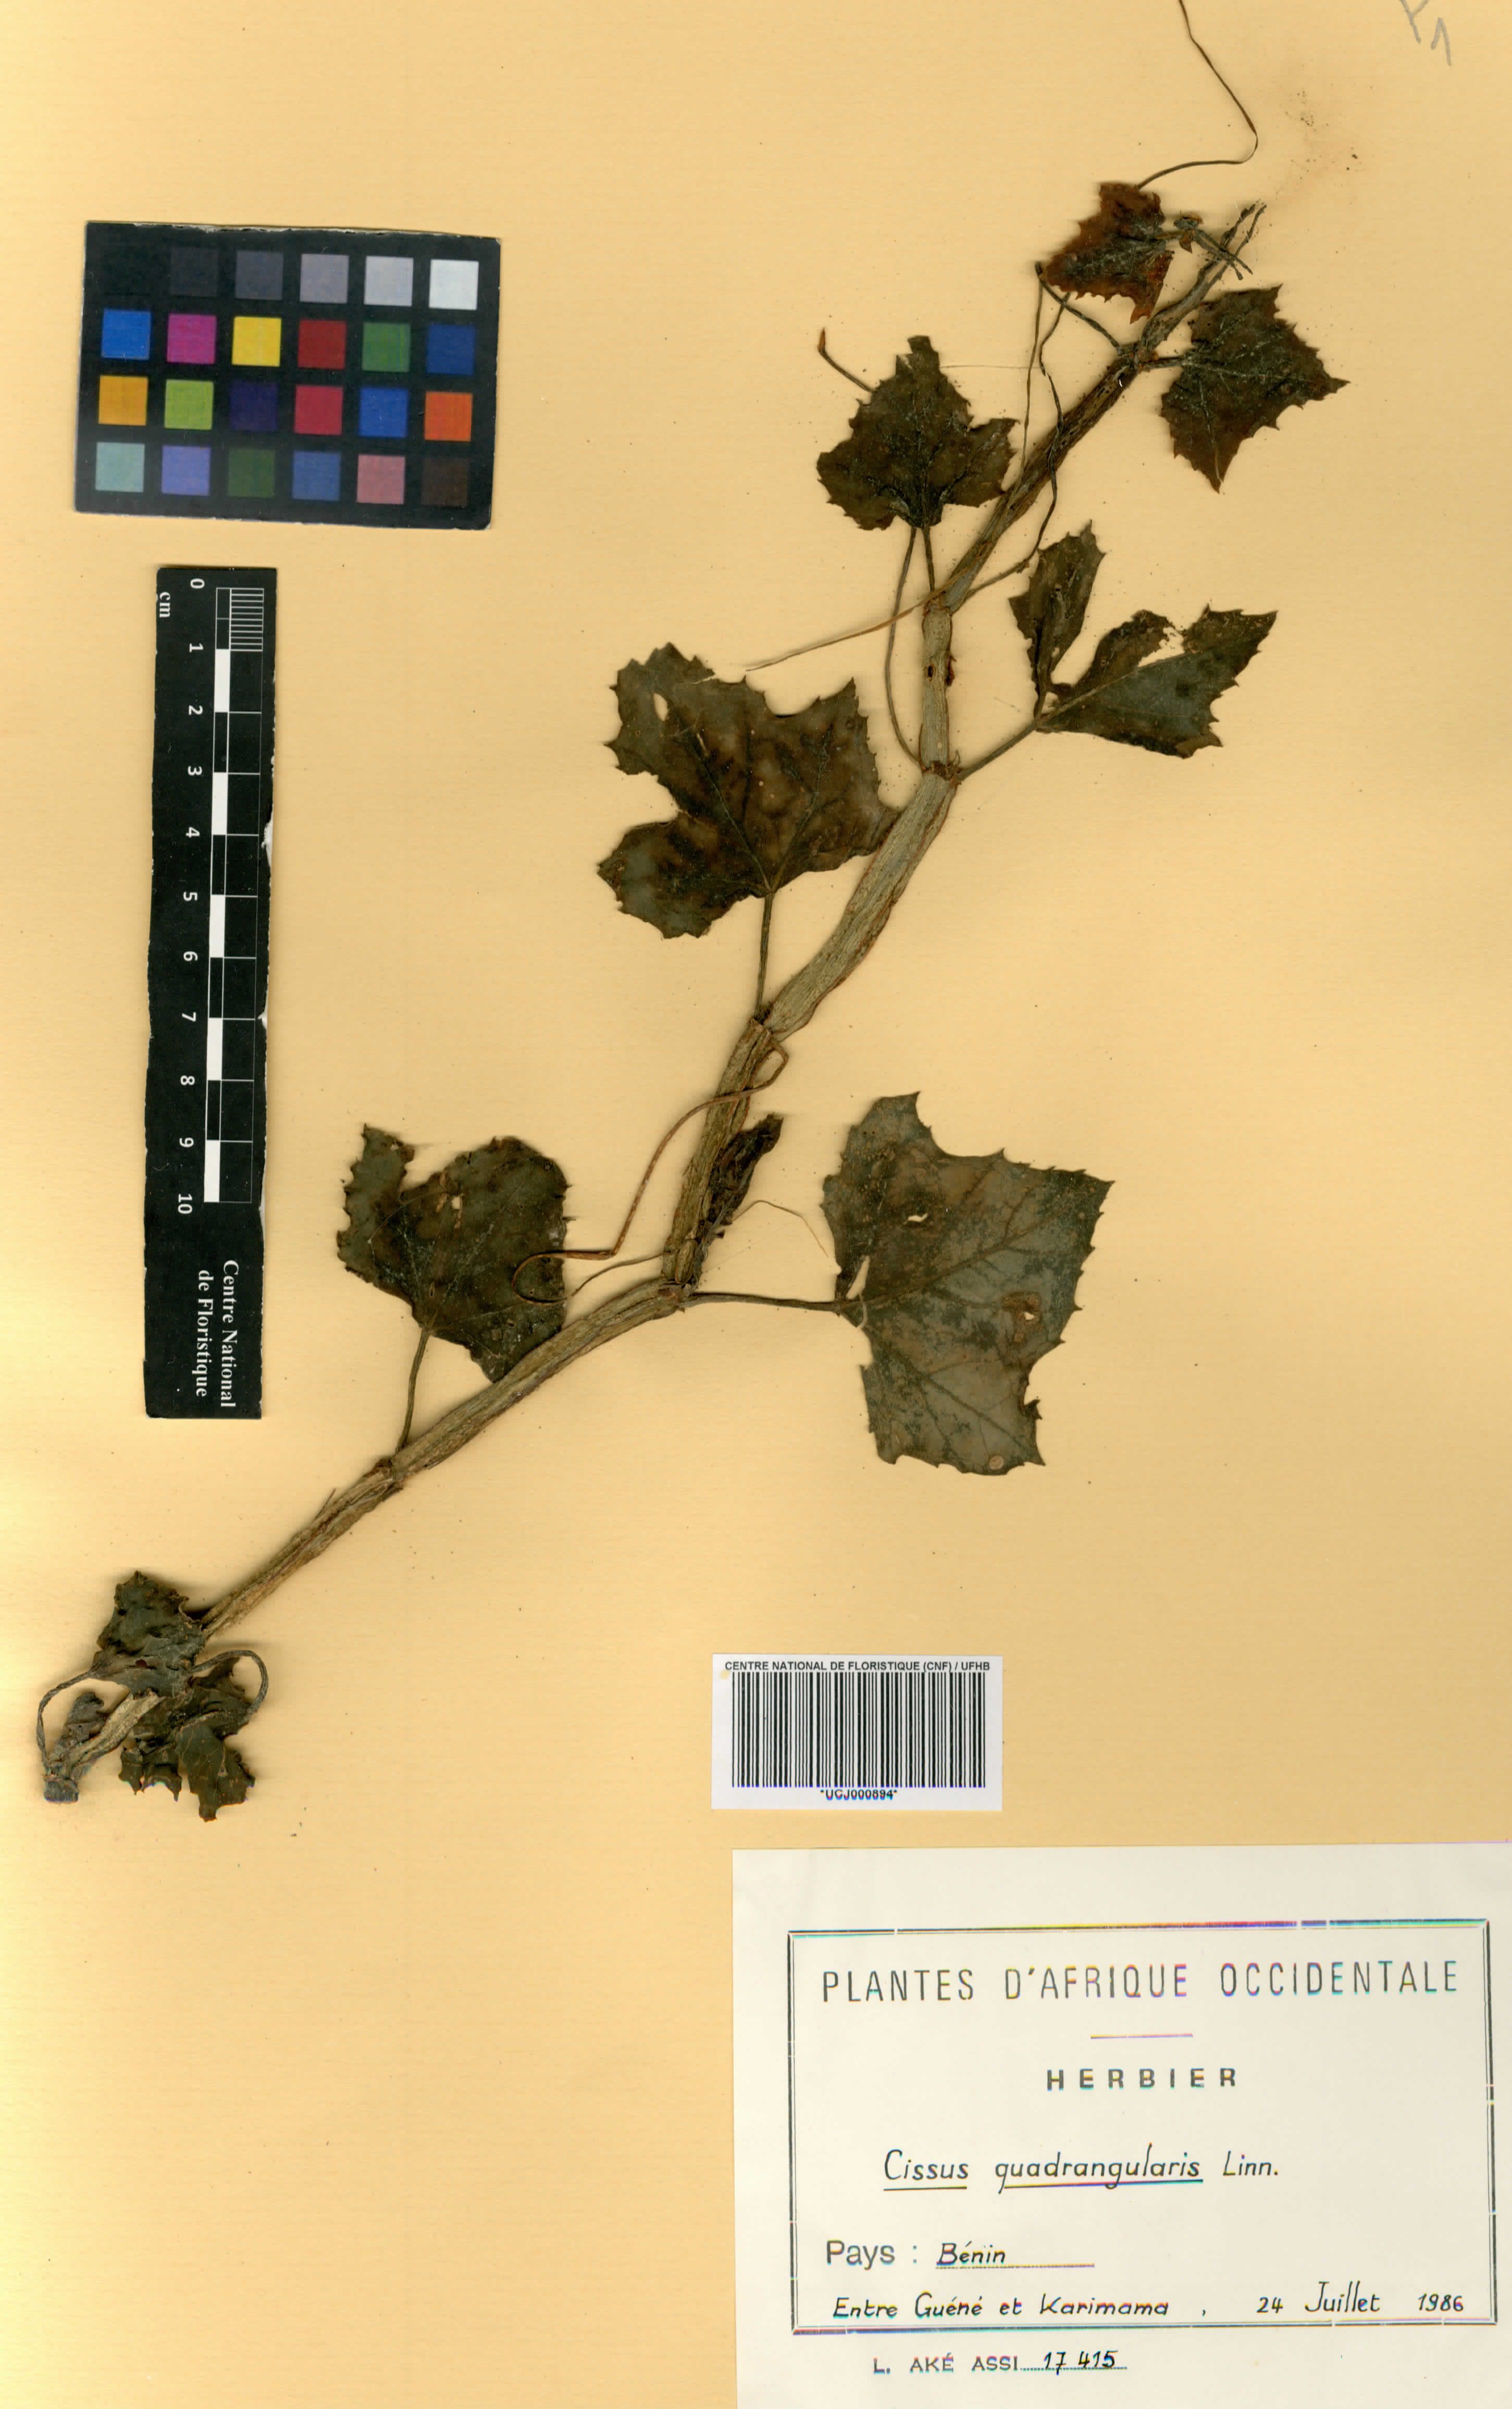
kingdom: Plantae
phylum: Tracheophyta
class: Magnoliopsida
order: Vitales
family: Vitaceae
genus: Cissus
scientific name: Cissus quadrangularis
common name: Veldt-grape
